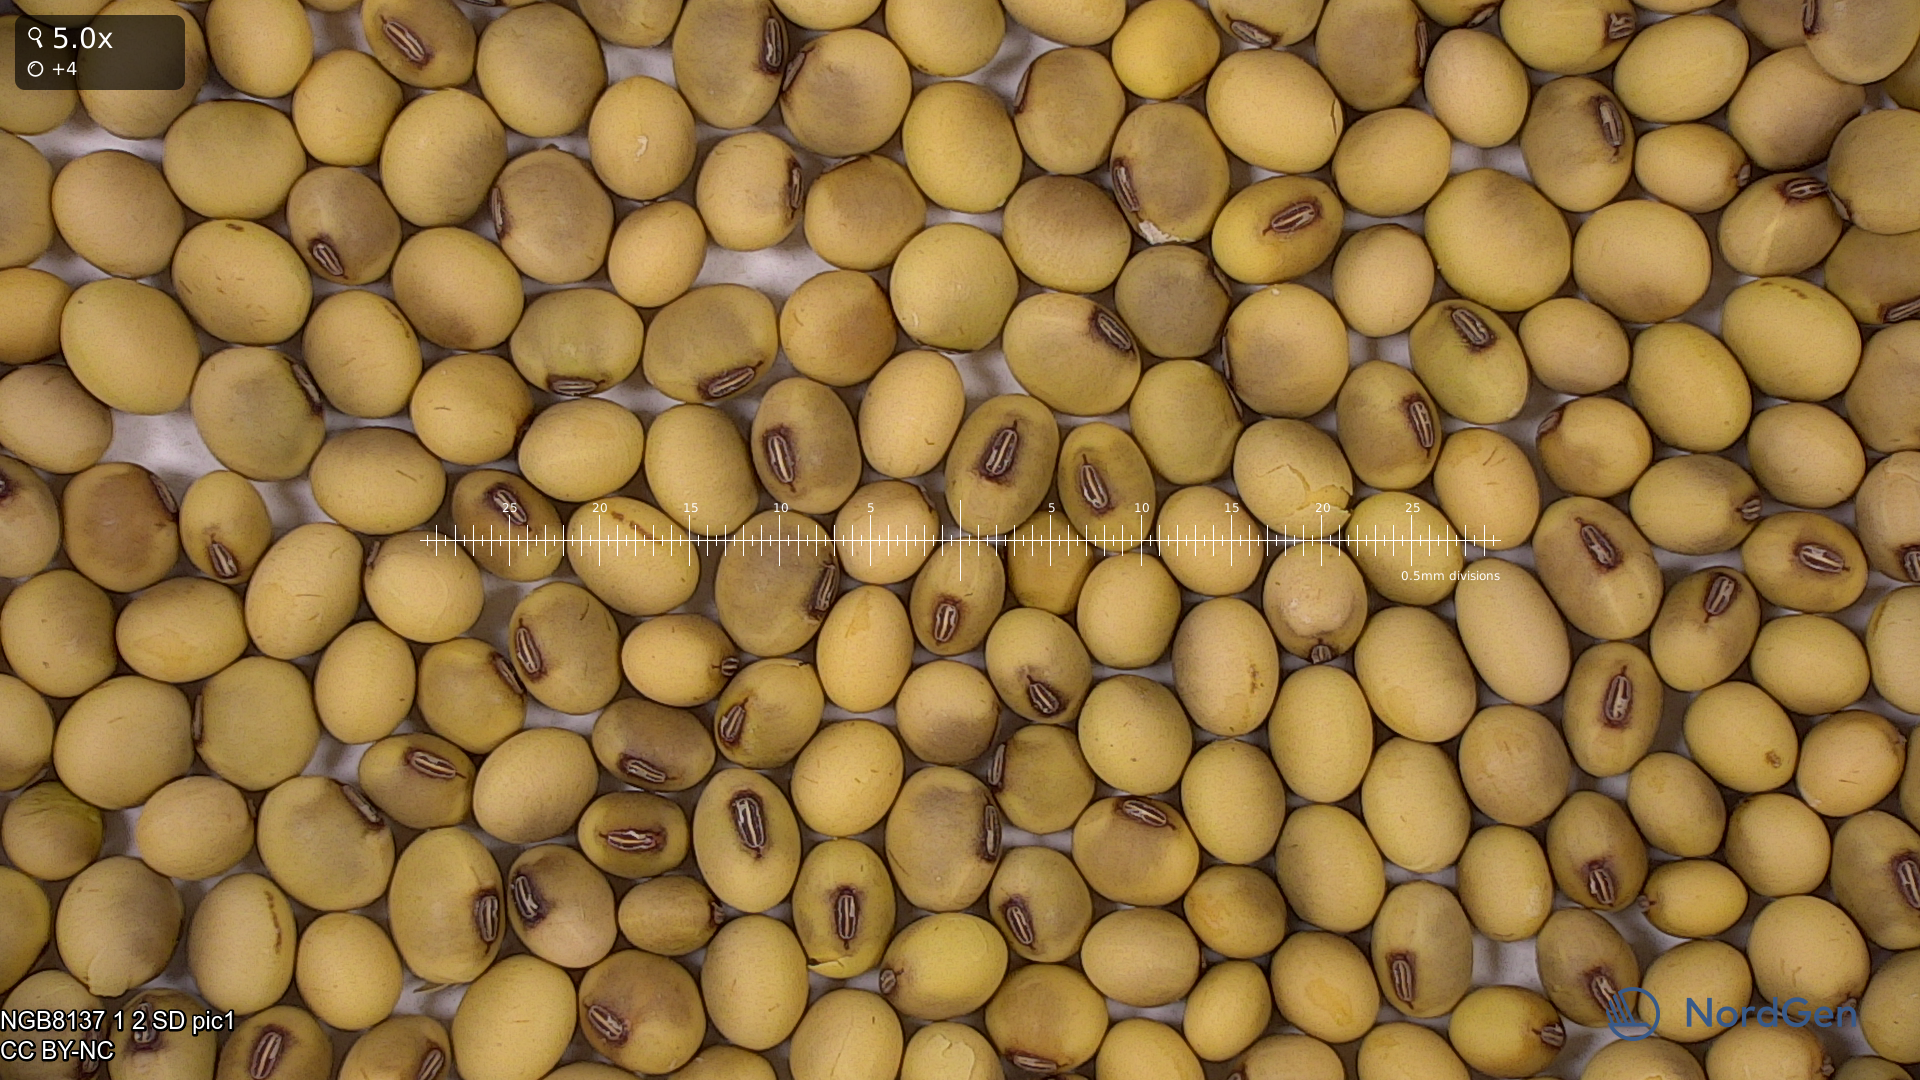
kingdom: Plantae
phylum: Tracheophyta
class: Magnoliopsida
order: Fabales
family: Fabaceae
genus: Glycine
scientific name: Glycine max
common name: Soya-bean
